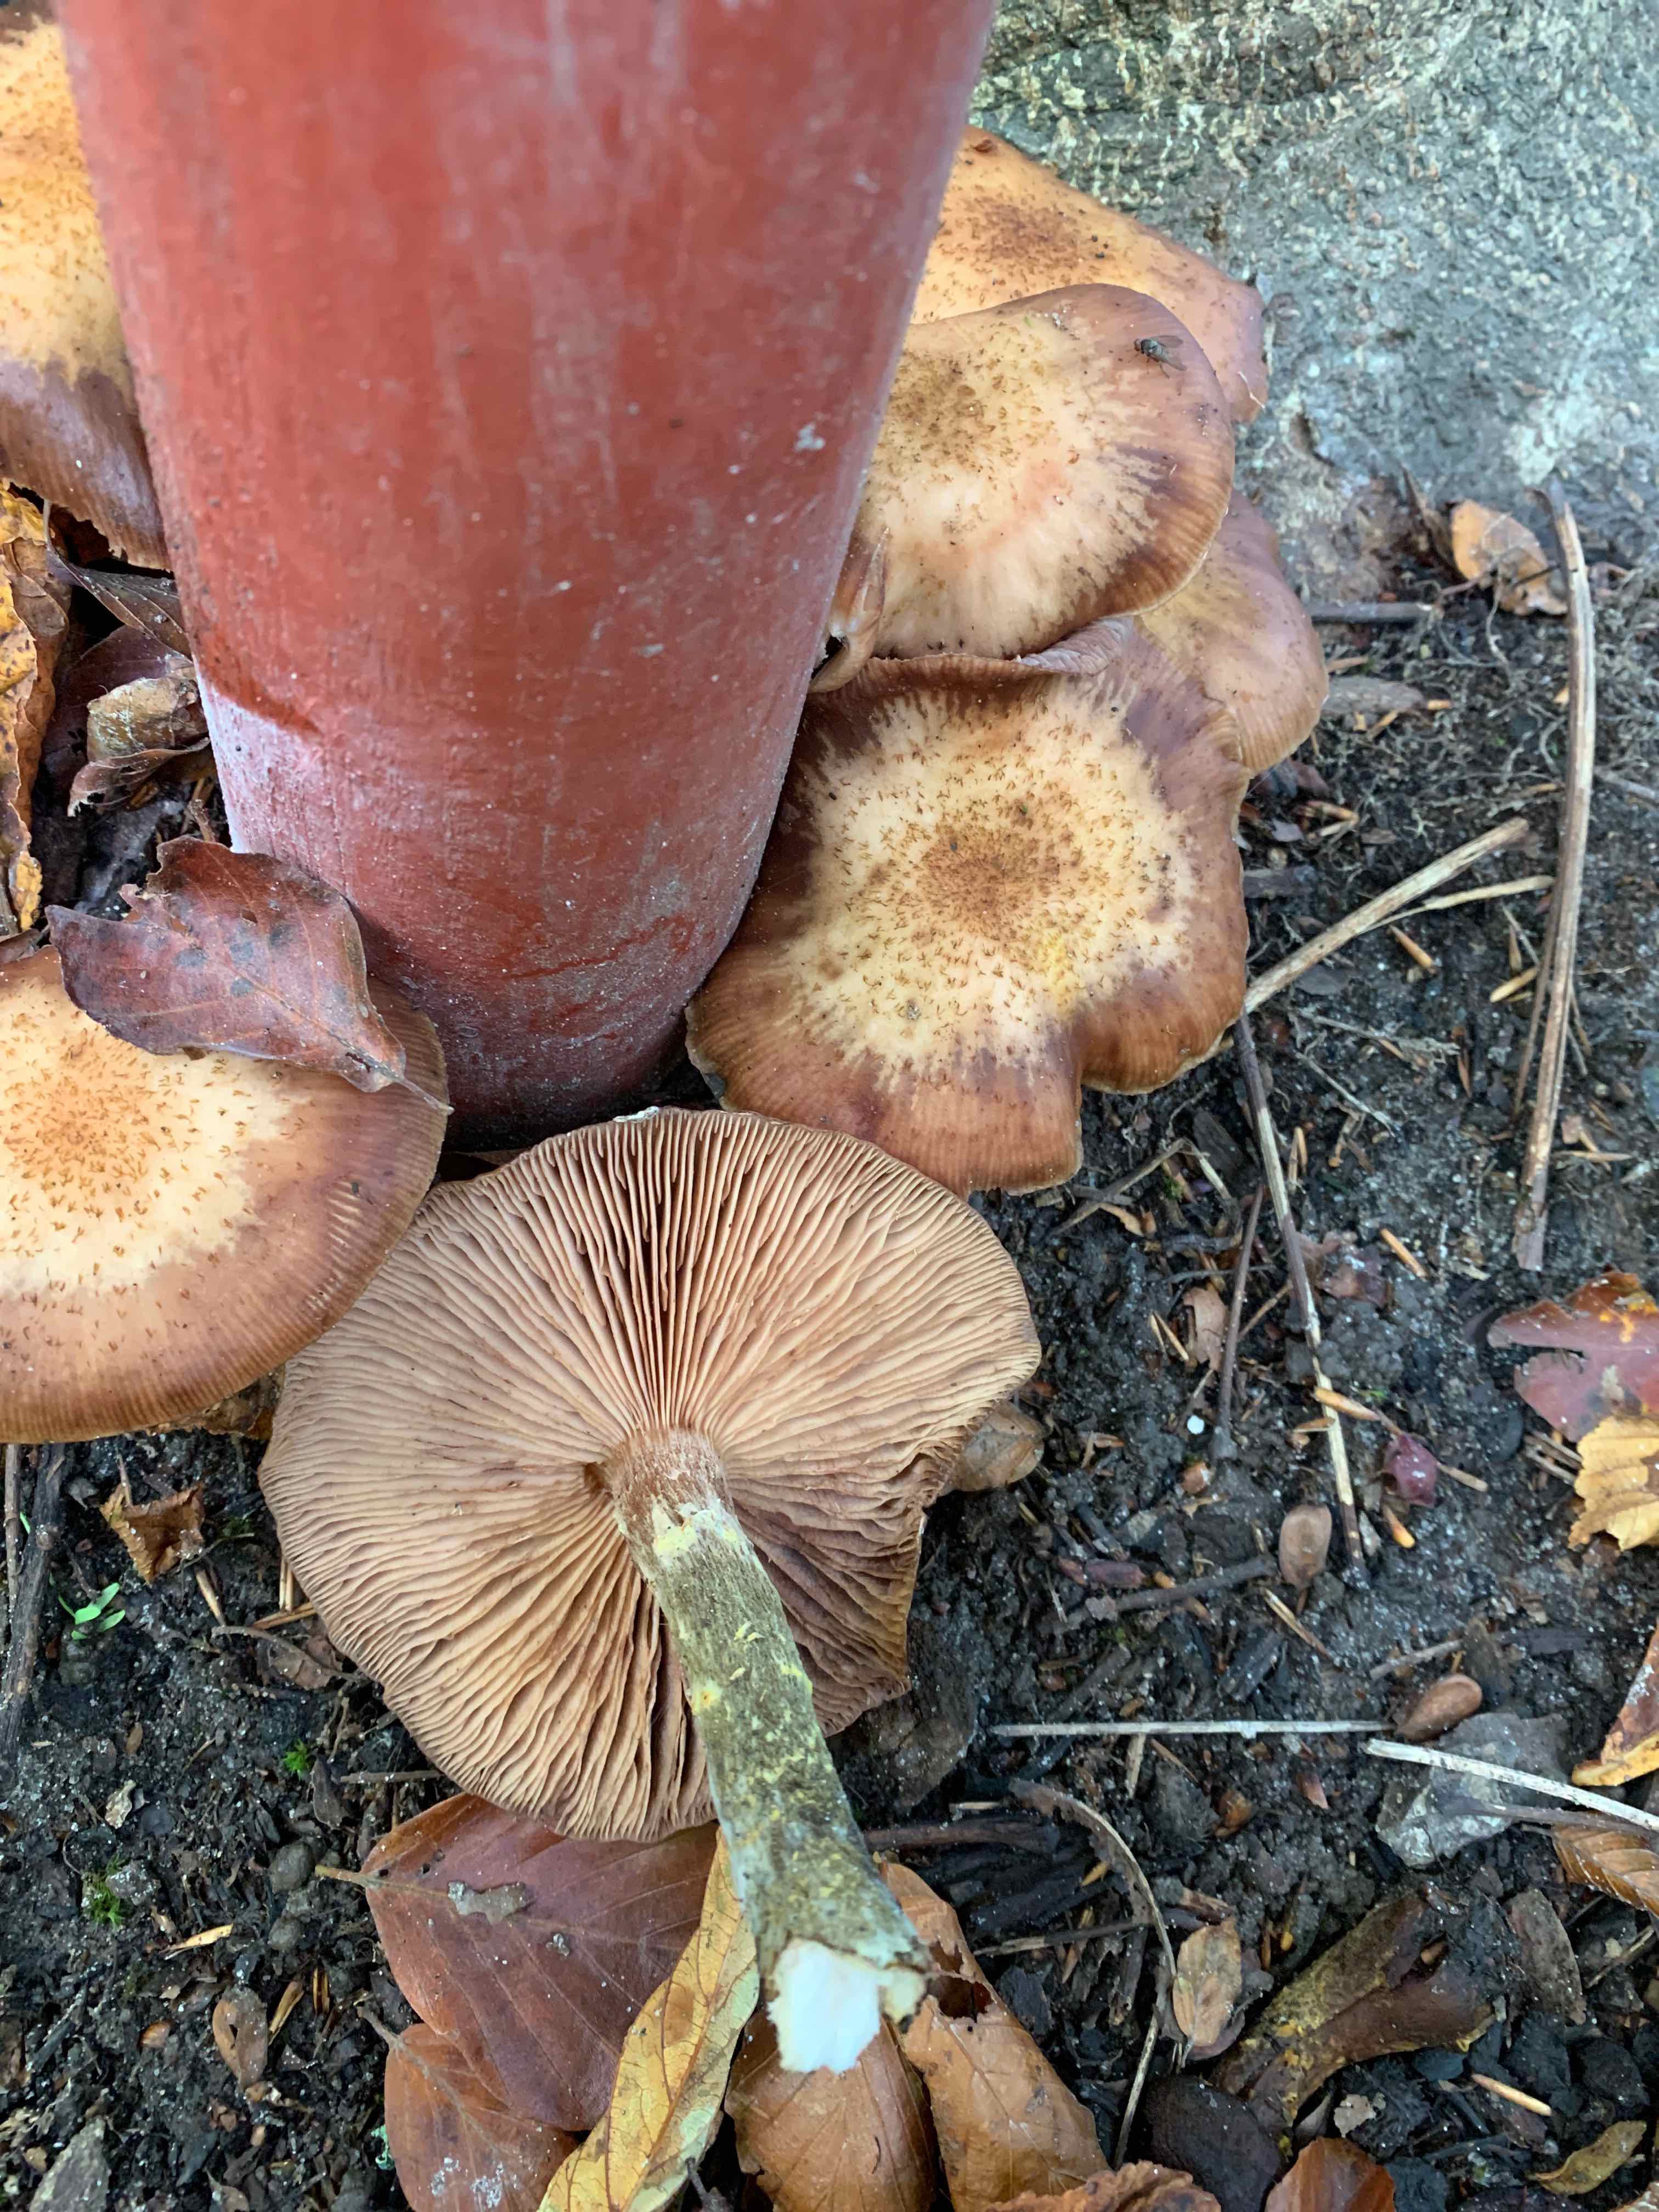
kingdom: Fungi
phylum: Basidiomycota
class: Agaricomycetes
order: Agaricales
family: Physalacriaceae
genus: Armillaria
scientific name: Armillaria lutea
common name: køllestokket honningsvamp
